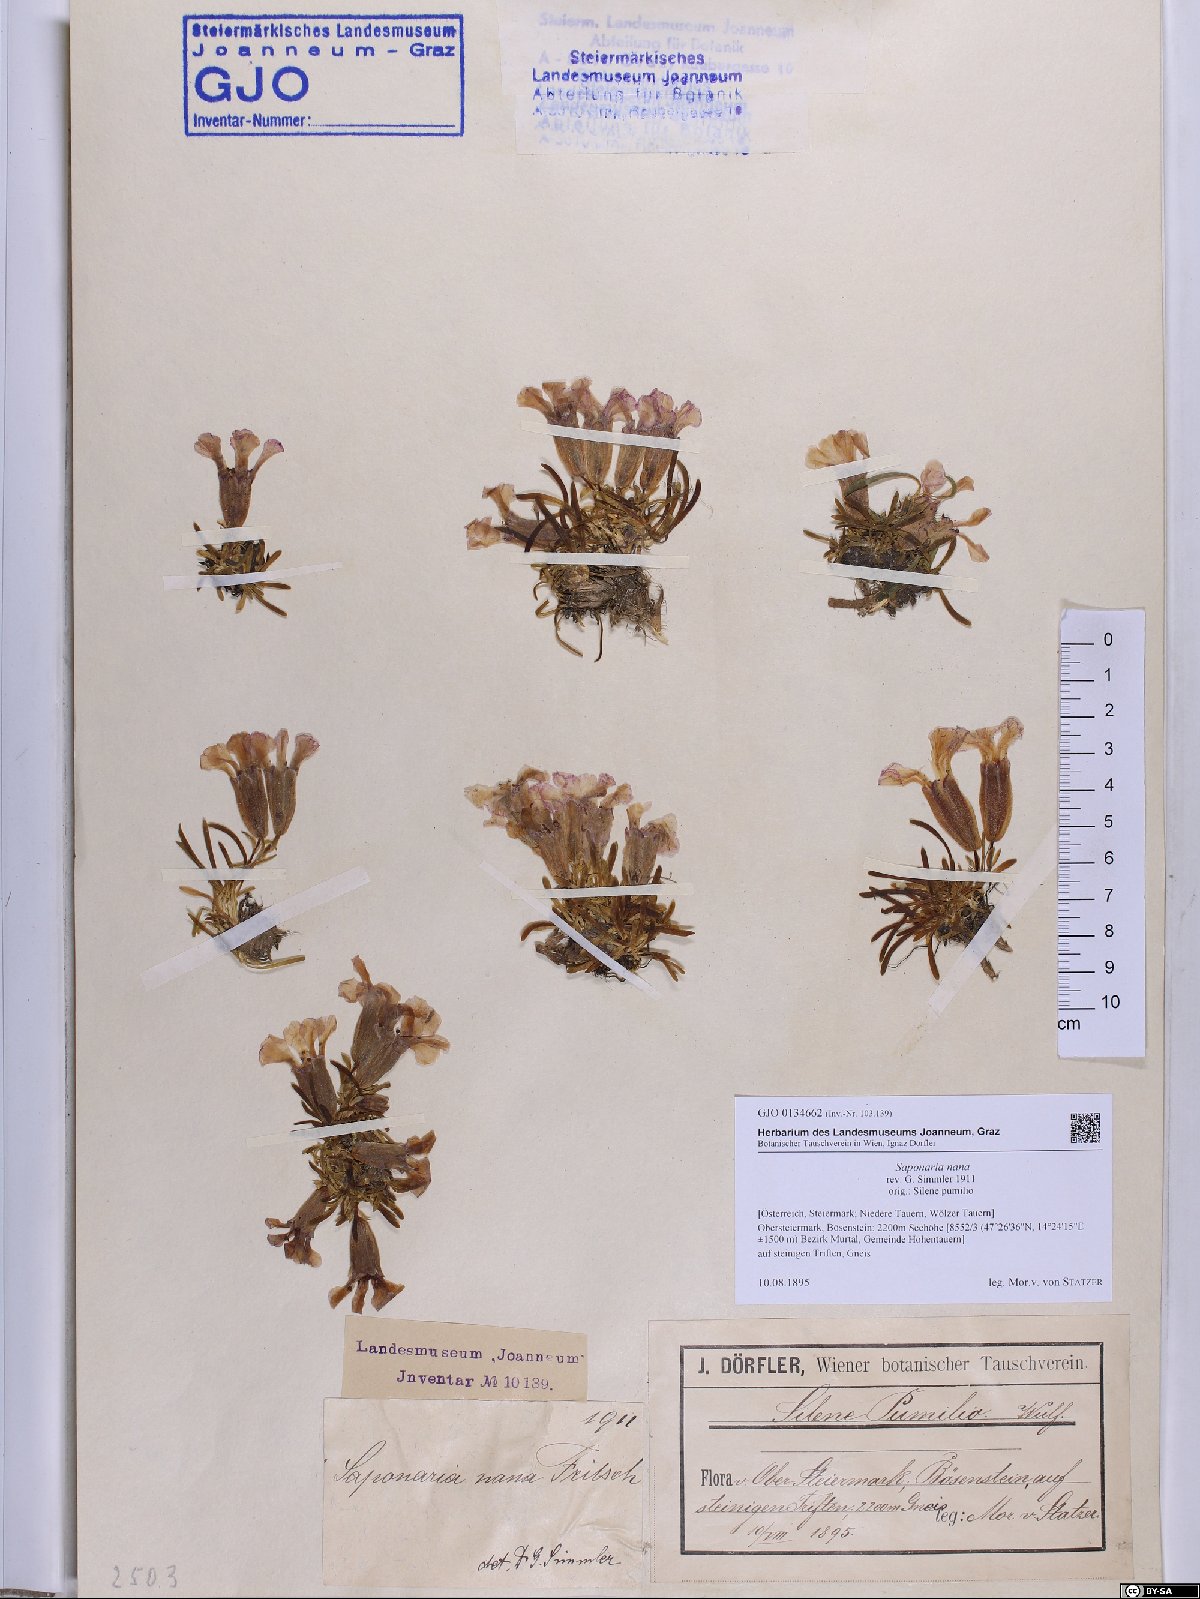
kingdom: Plantae
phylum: Tracheophyta
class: Magnoliopsida
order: Caryophyllales
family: Caryophyllaceae
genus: Saponaria
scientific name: Saponaria pumila
